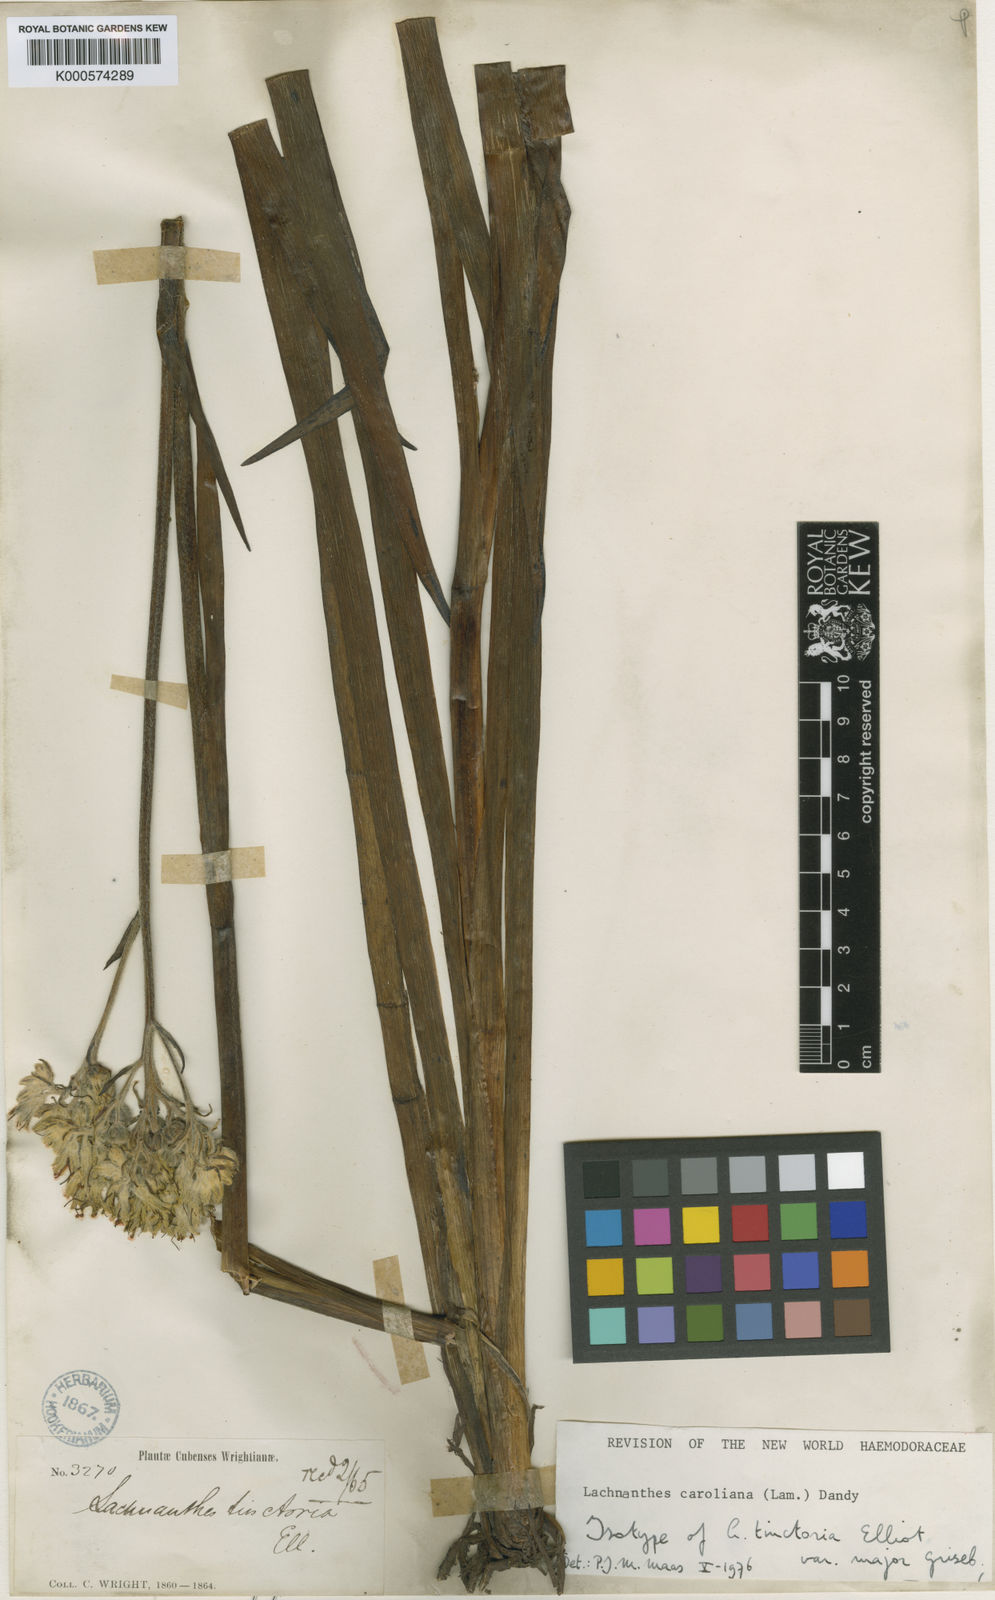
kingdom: Plantae
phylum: Tracheophyta
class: Liliopsida
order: Commelinales
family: Haemodoraceae
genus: Lachnanthes
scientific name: Lachnanthes caroliniana
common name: Carolina redroot
